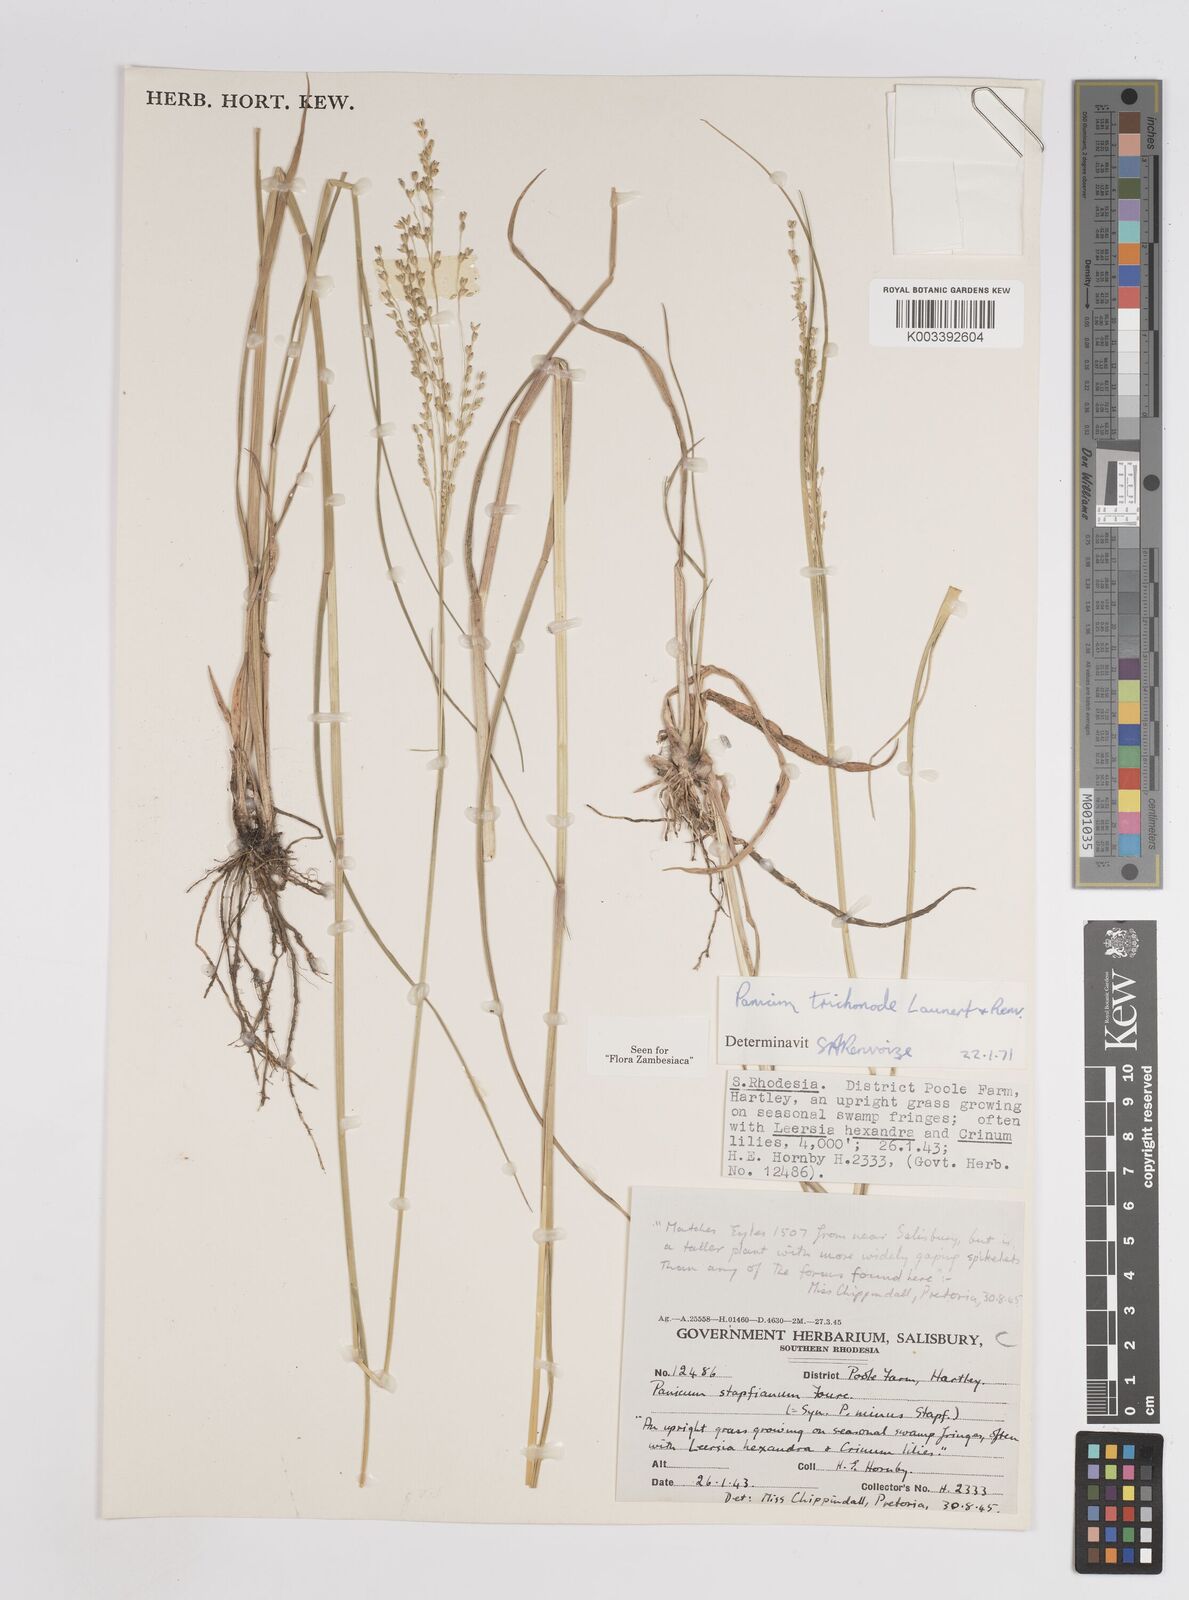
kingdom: Plantae
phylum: Tracheophyta
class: Liliopsida
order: Poales
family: Poaceae
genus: Panicum
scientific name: Panicum trichonode
